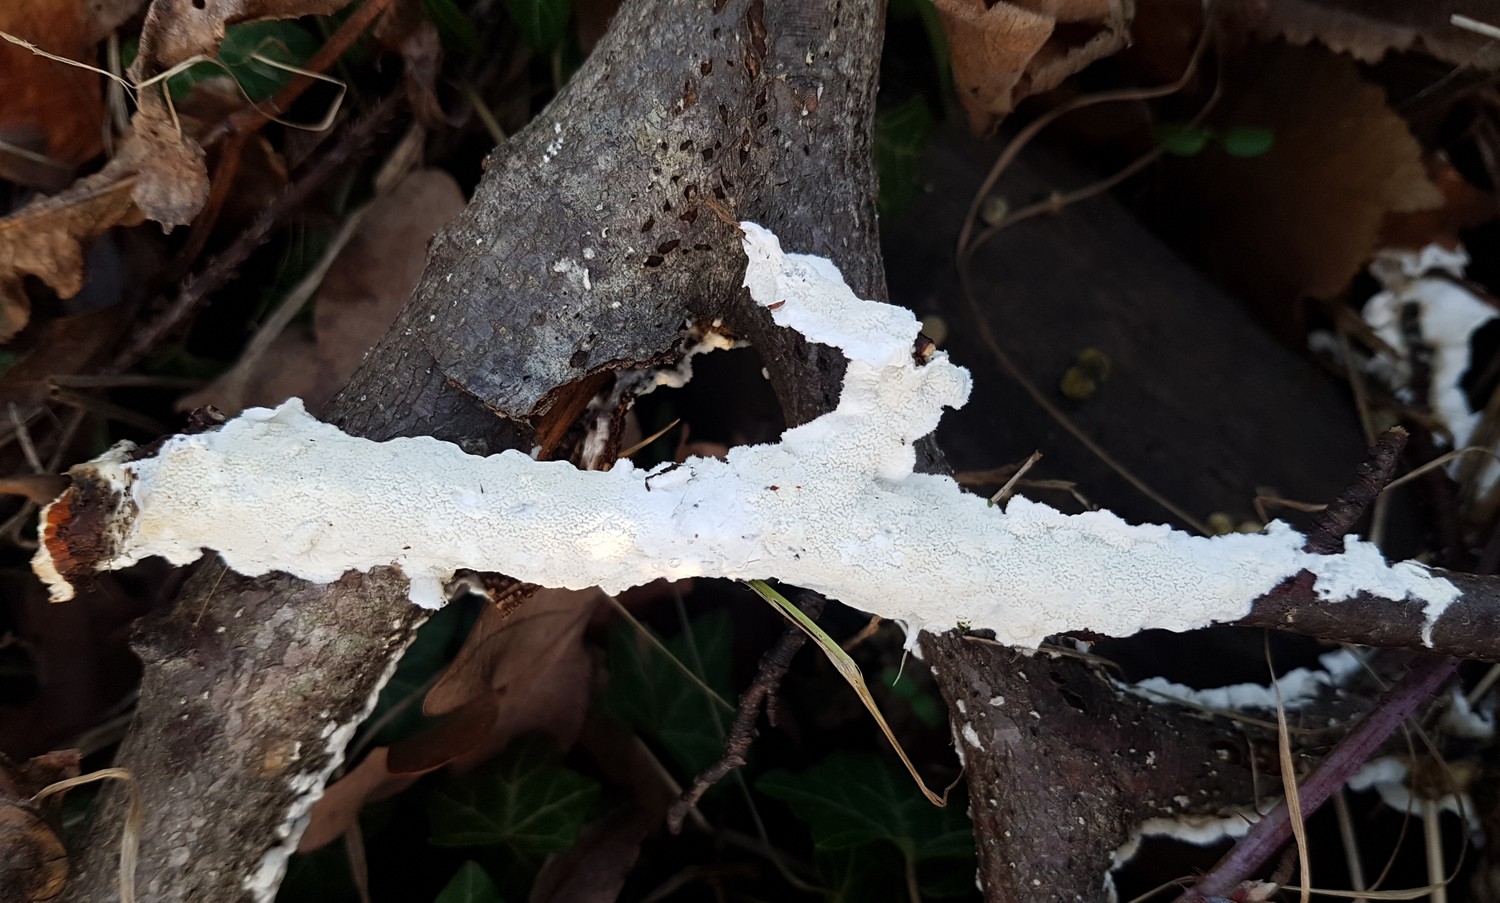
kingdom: Fungi
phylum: Basidiomycota
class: Agaricomycetes
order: Polyporales
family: Irpicaceae
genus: Byssomerulius
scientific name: Byssomerulius corium
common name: læder-åresvamp
